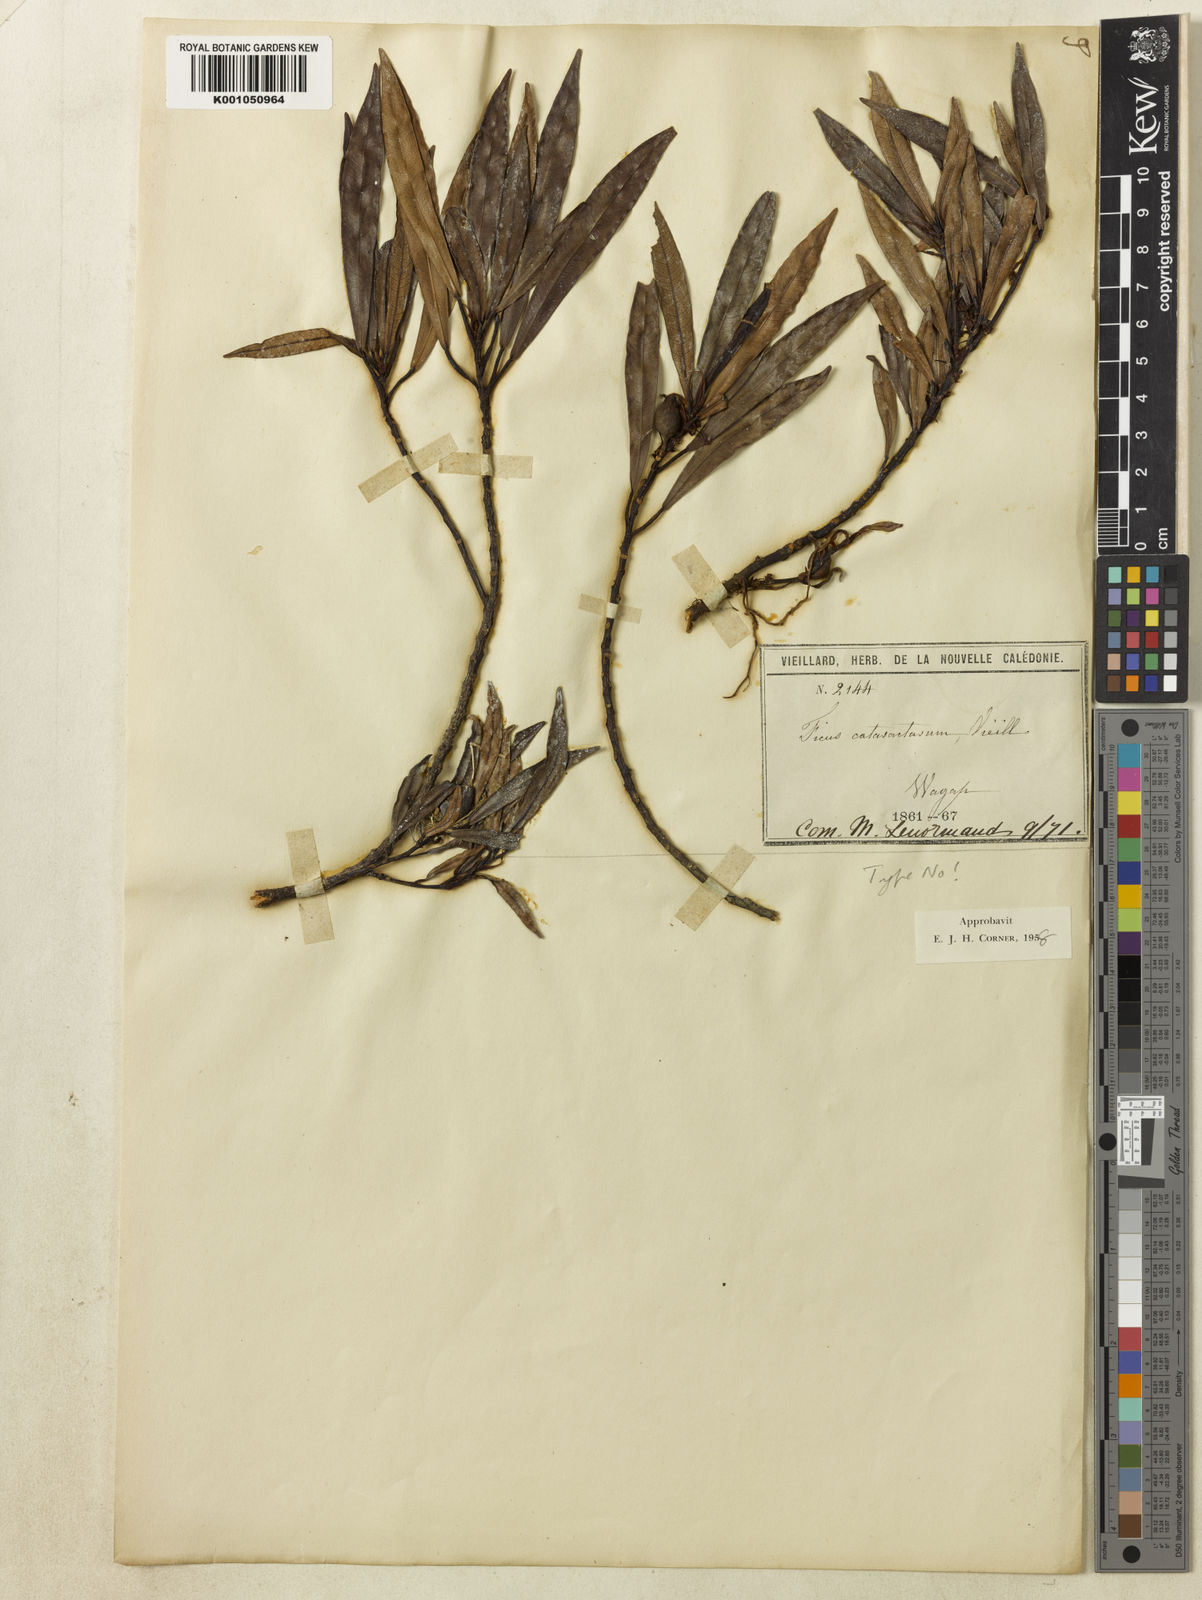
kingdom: Plantae
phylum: Tracheophyta
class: Magnoliopsida
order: Rosales
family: Moraceae
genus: Ficus
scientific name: Ficus
